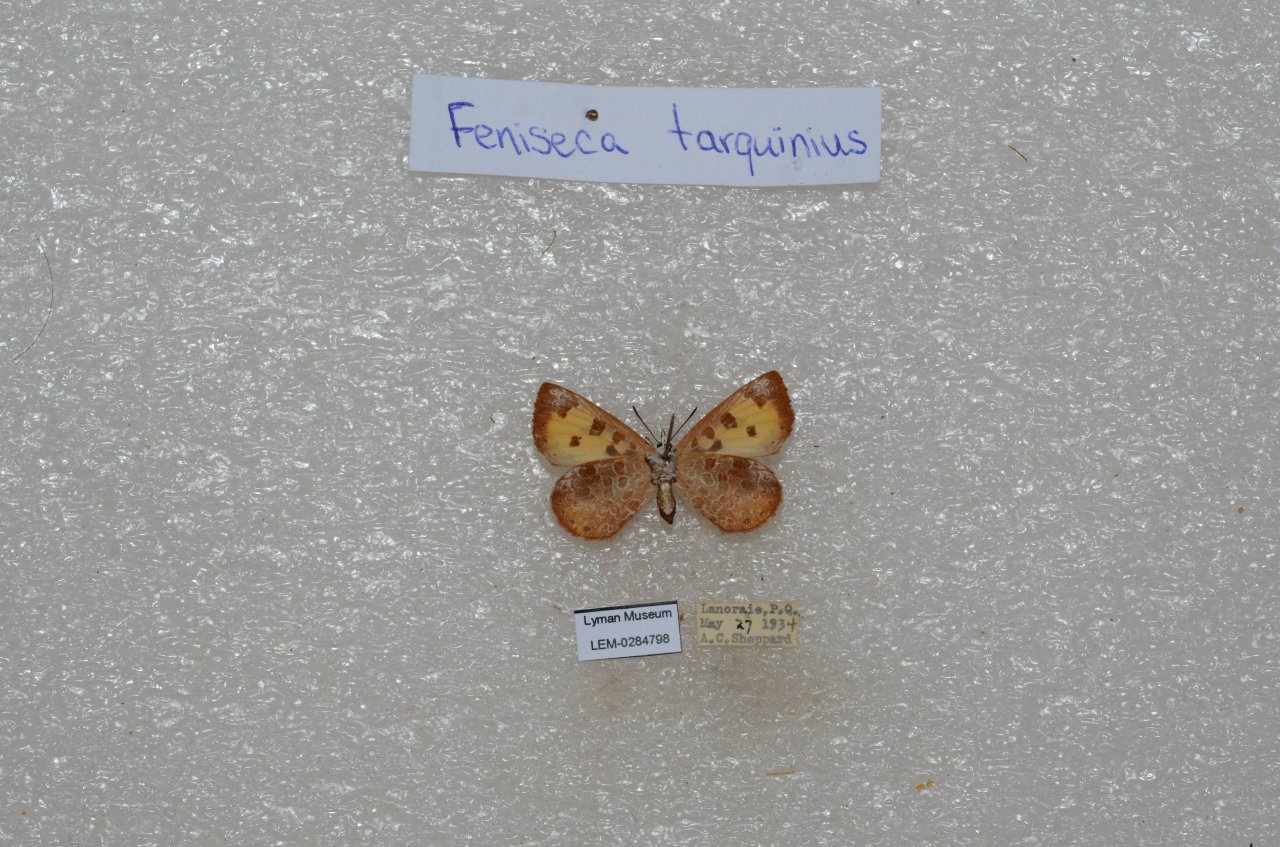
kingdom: Animalia
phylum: Arthropoda
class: Insecta
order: Lepidoptera
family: Lycaenidae
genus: Feniseca
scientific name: Feniseca tarquinius
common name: Harvester
